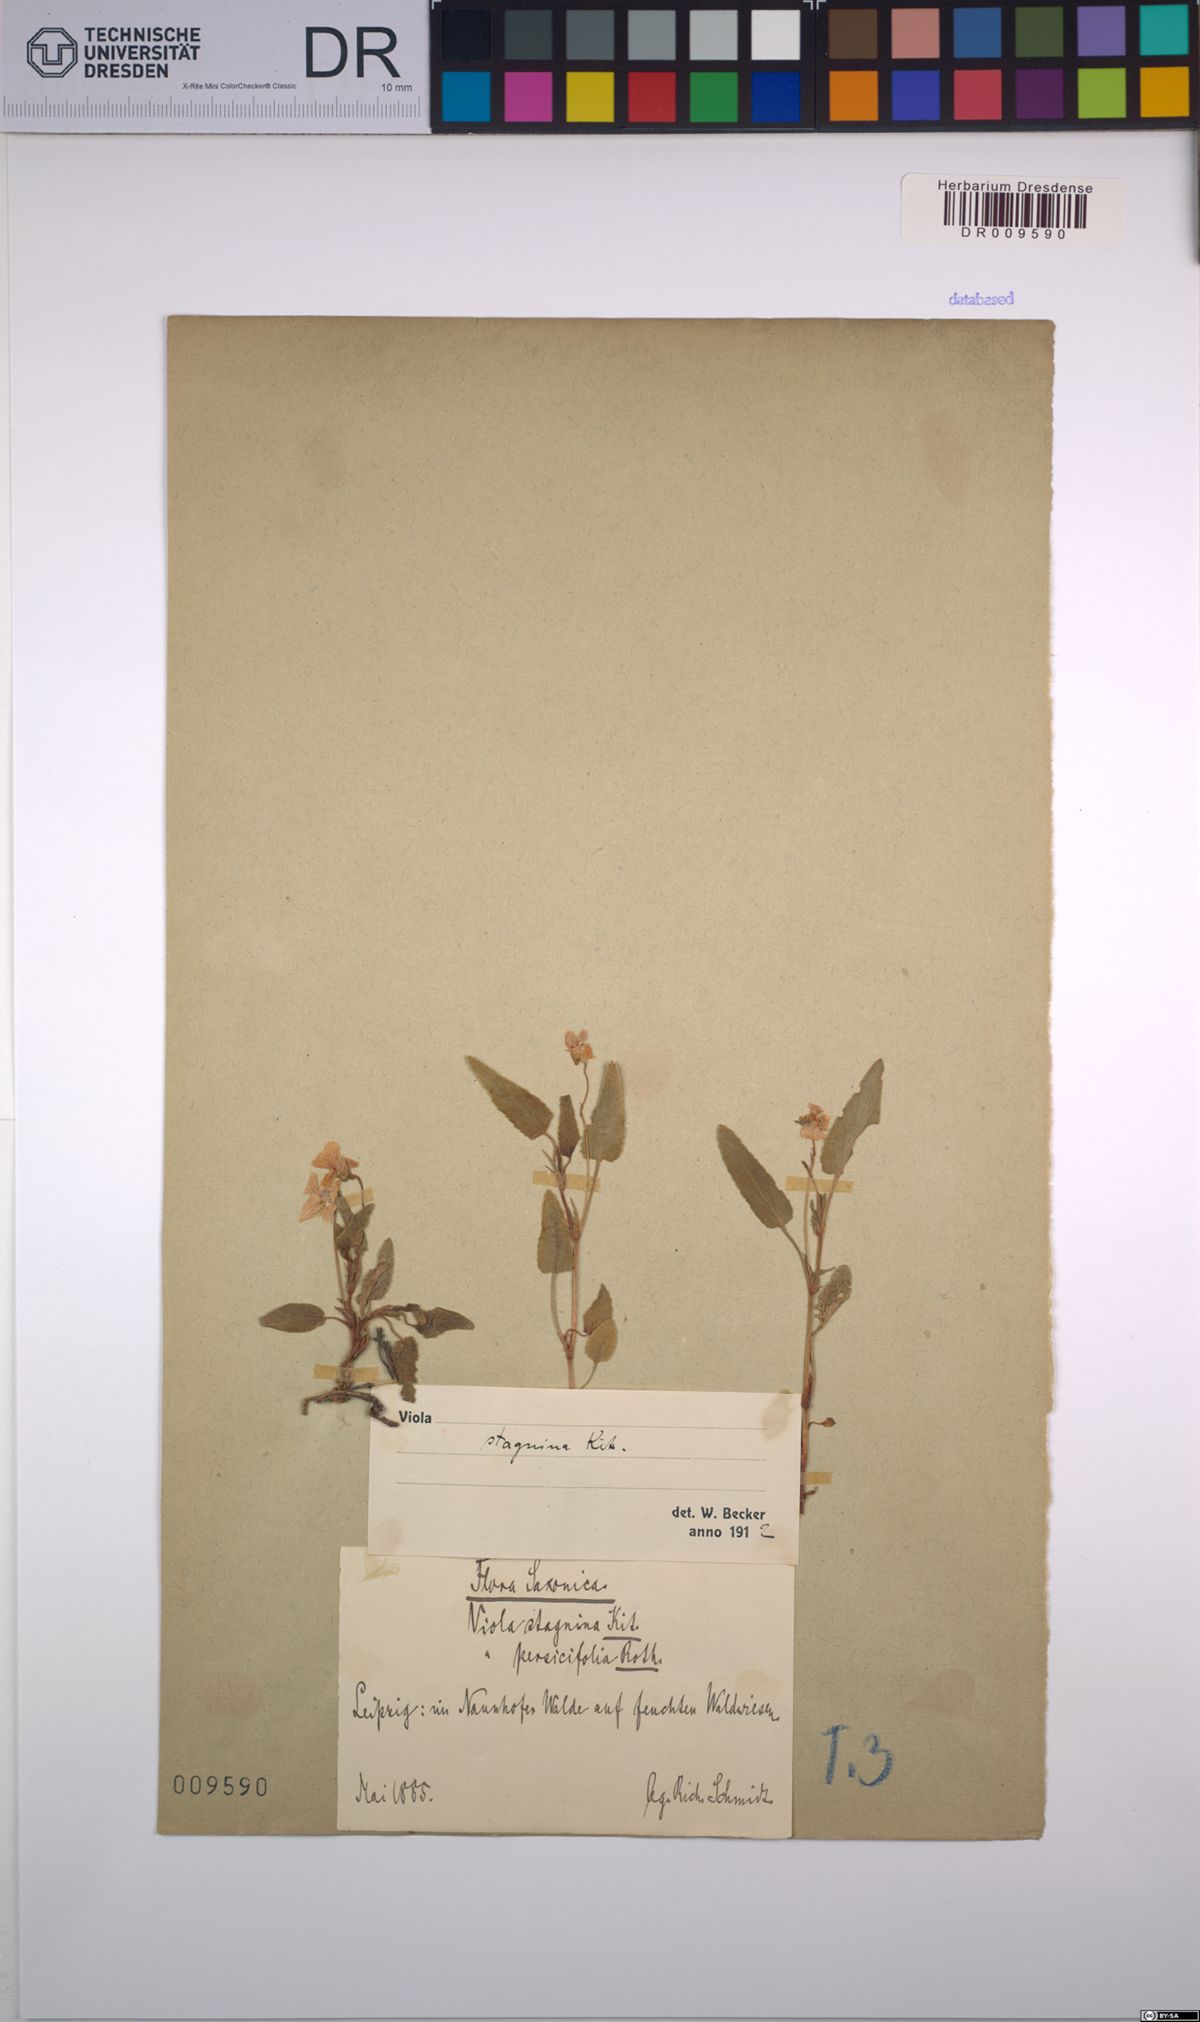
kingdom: Plantae
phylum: Tracheophyta
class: Magnoliopsida
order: Malpighiales
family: Violaceae
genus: Viola
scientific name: Viola stagnina
